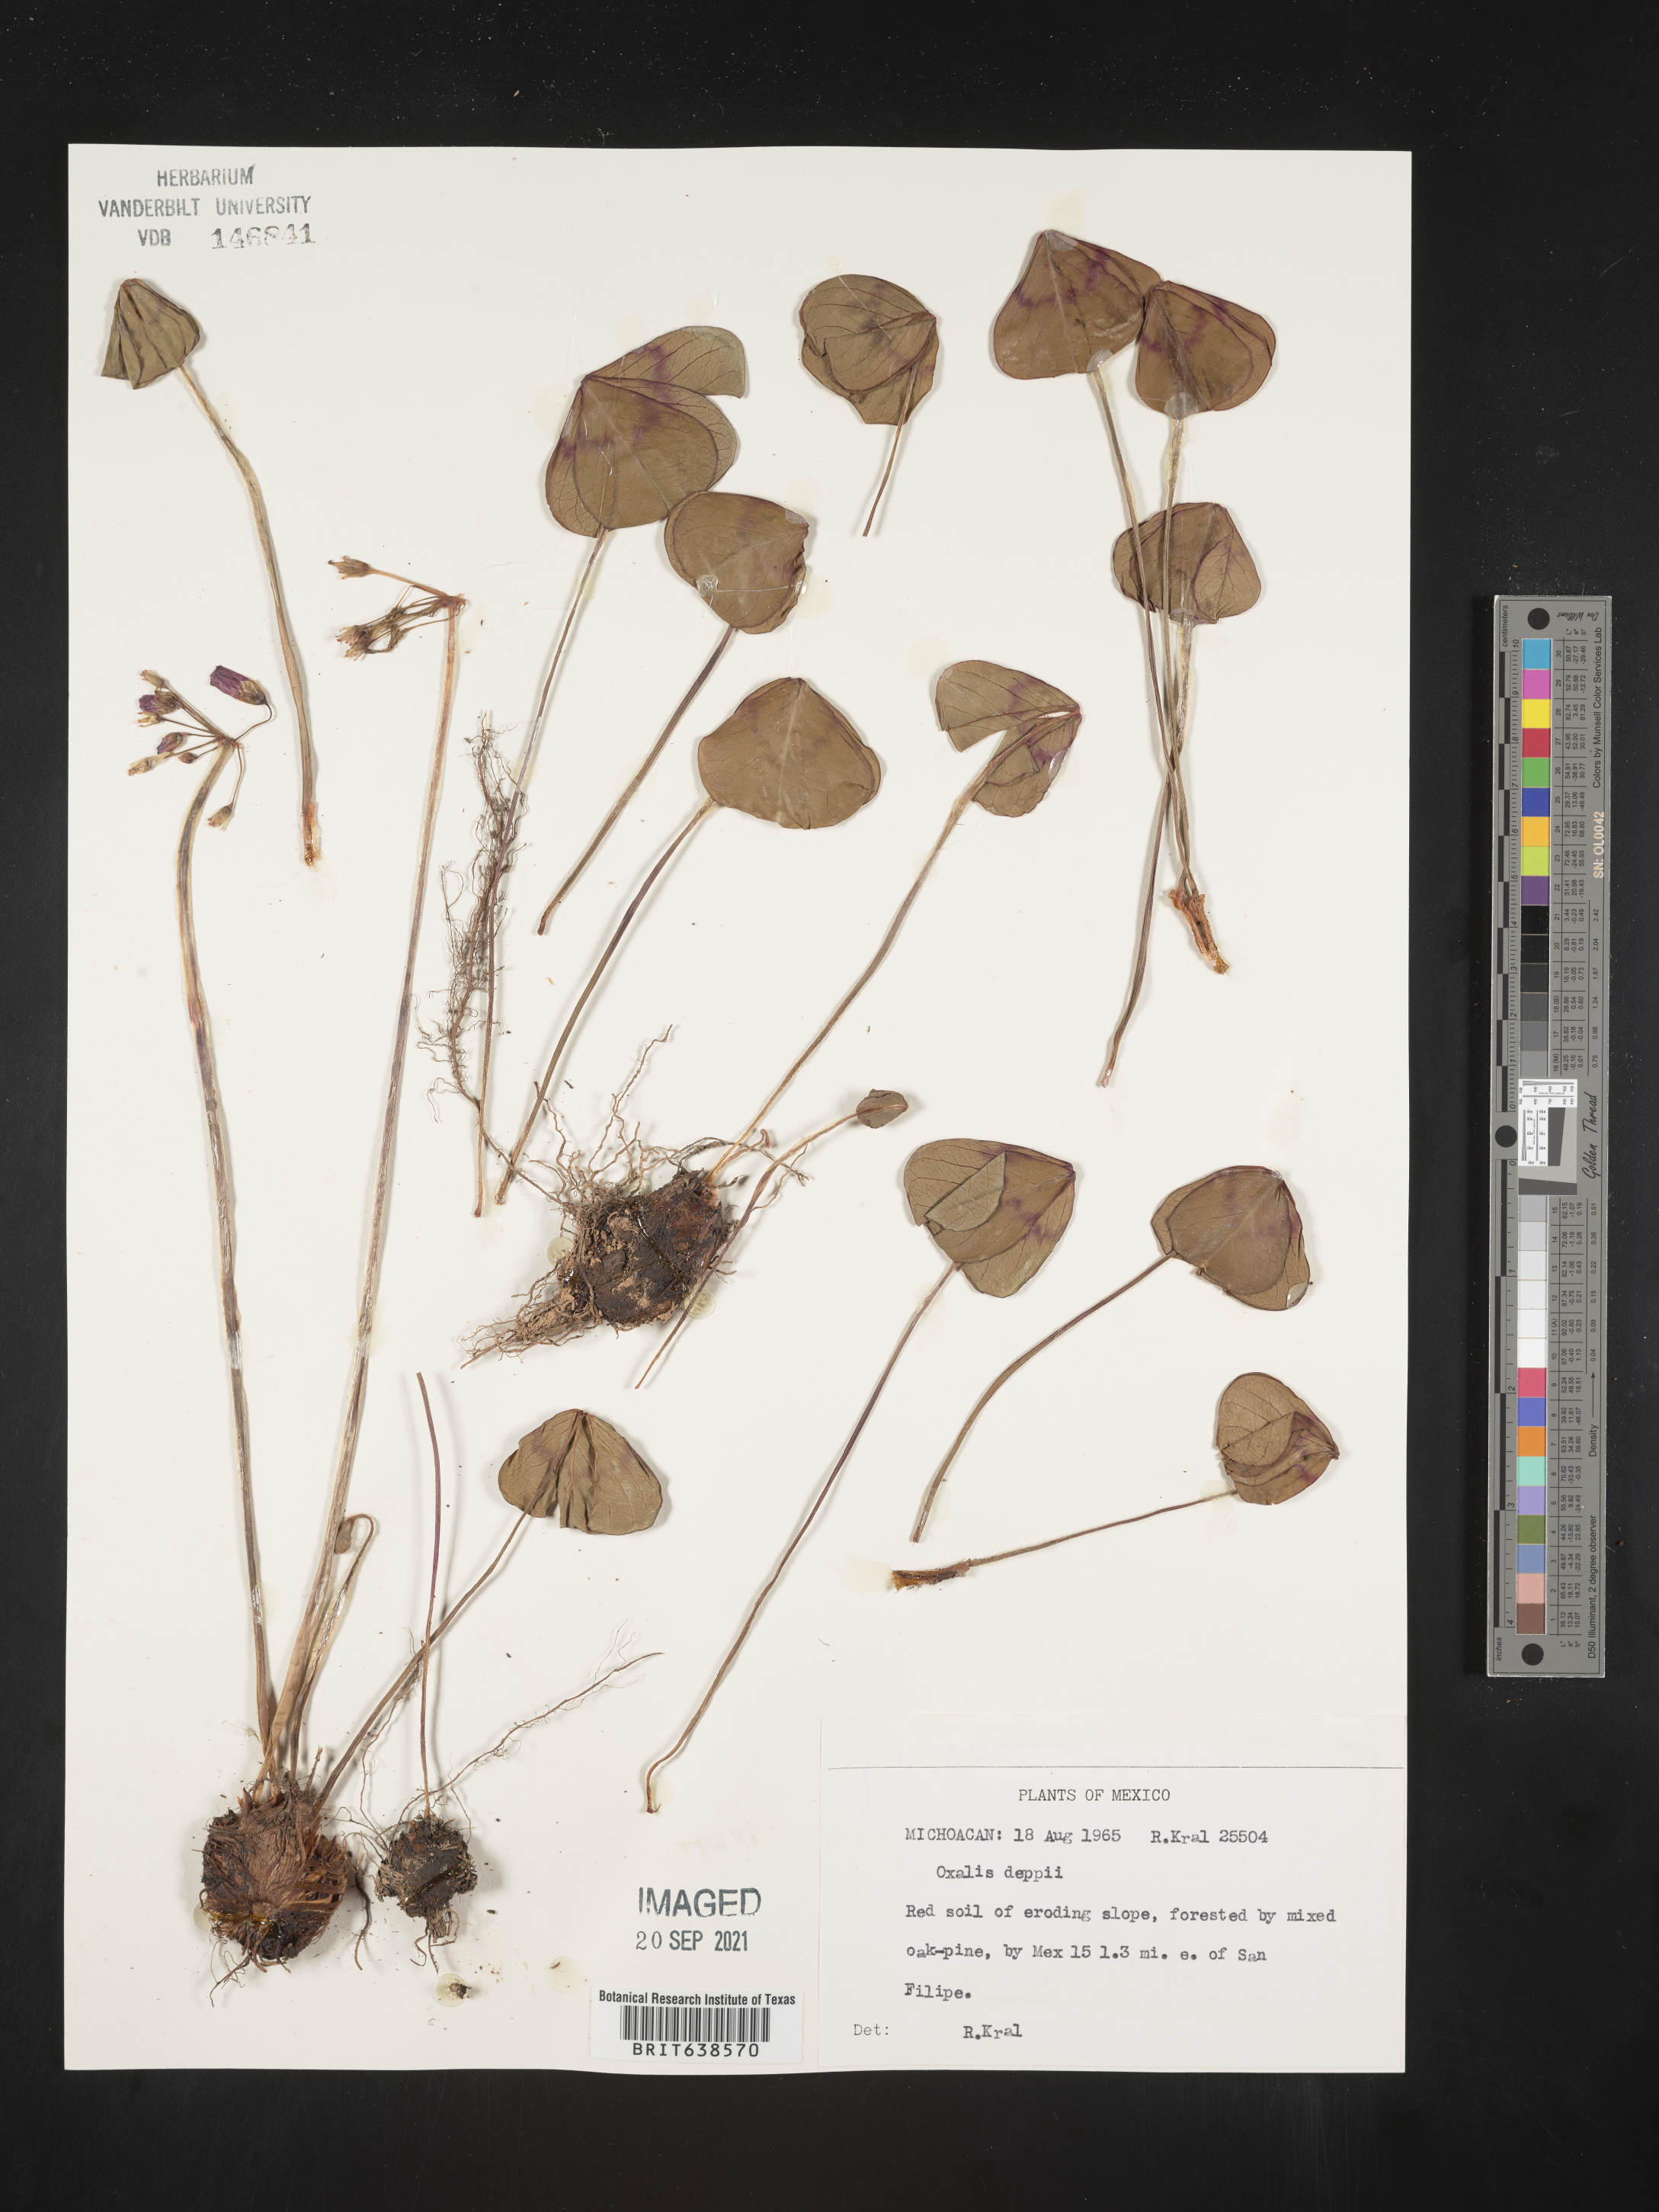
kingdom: Plantae
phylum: Tracheophyta
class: Magnoliopsida
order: Oxalidales
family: Oxalidaceae
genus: Oxalis
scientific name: Oxalis
